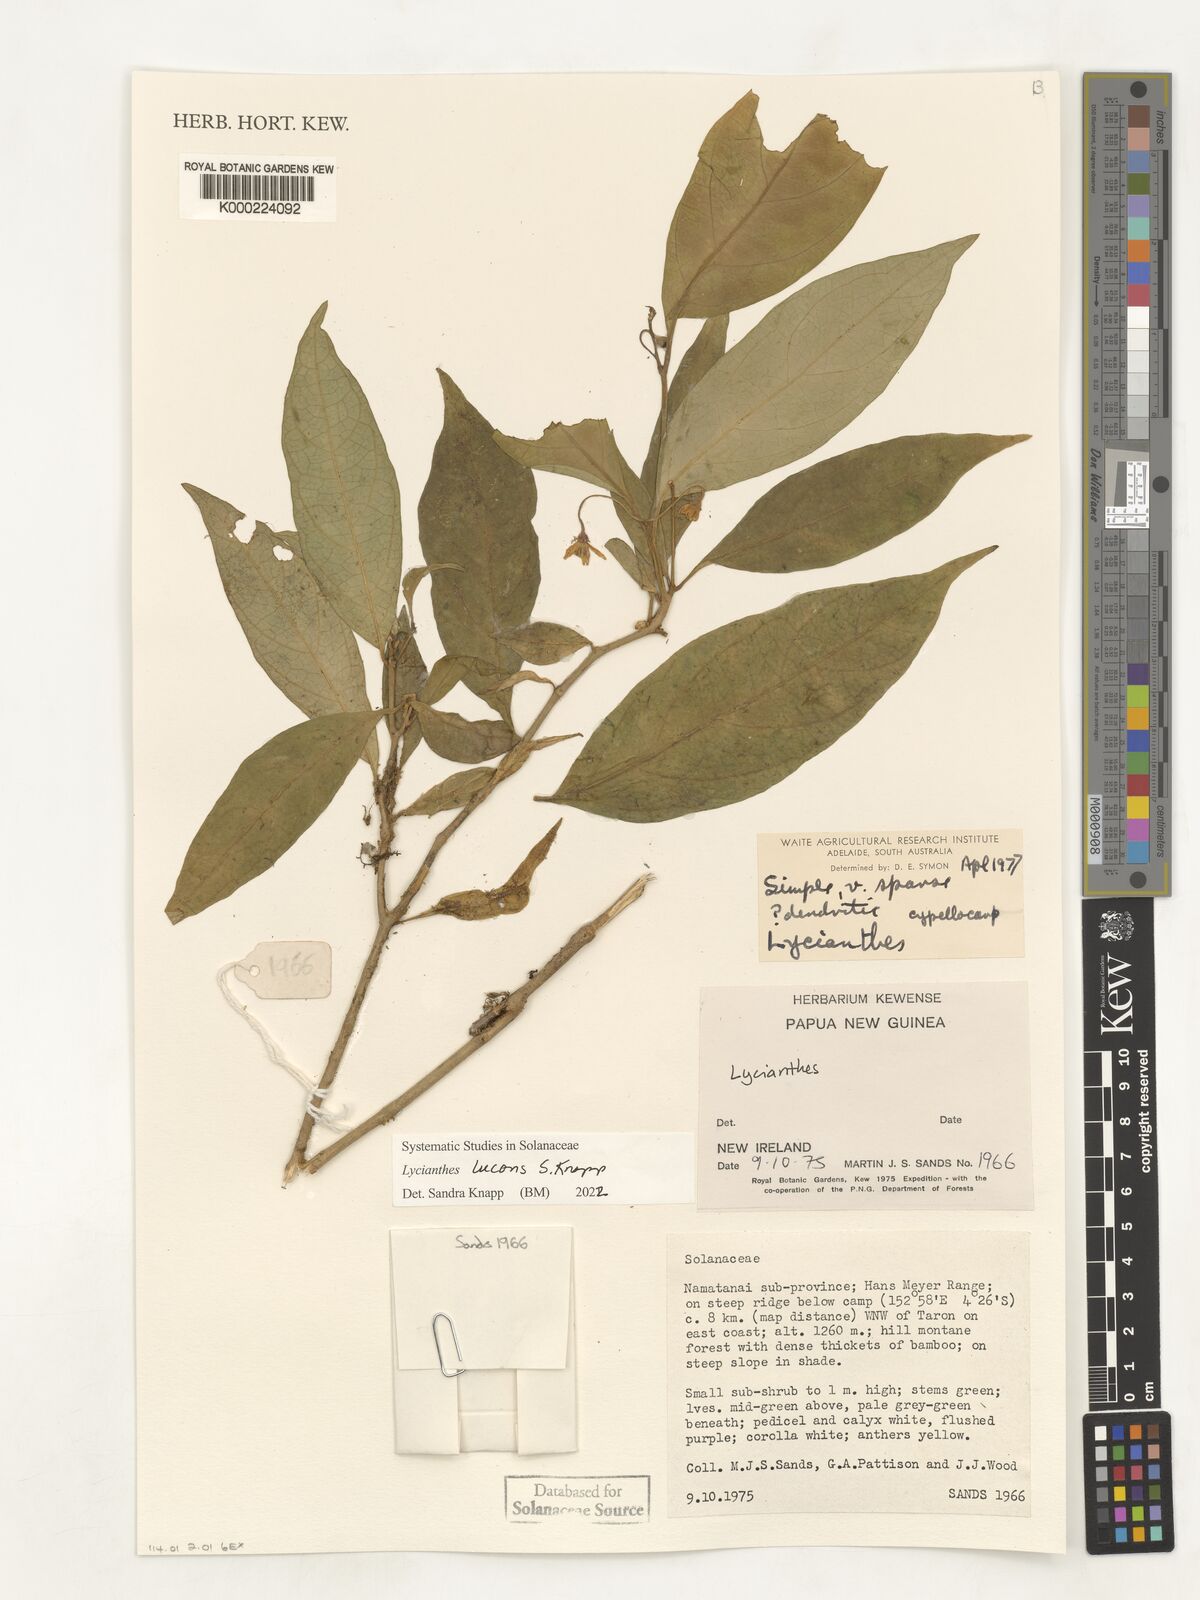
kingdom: Plantae
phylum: Tracheophyta
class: Magnoliopsida
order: Solanales
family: Solanaceae
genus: Lycianthes
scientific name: Lycianthes
